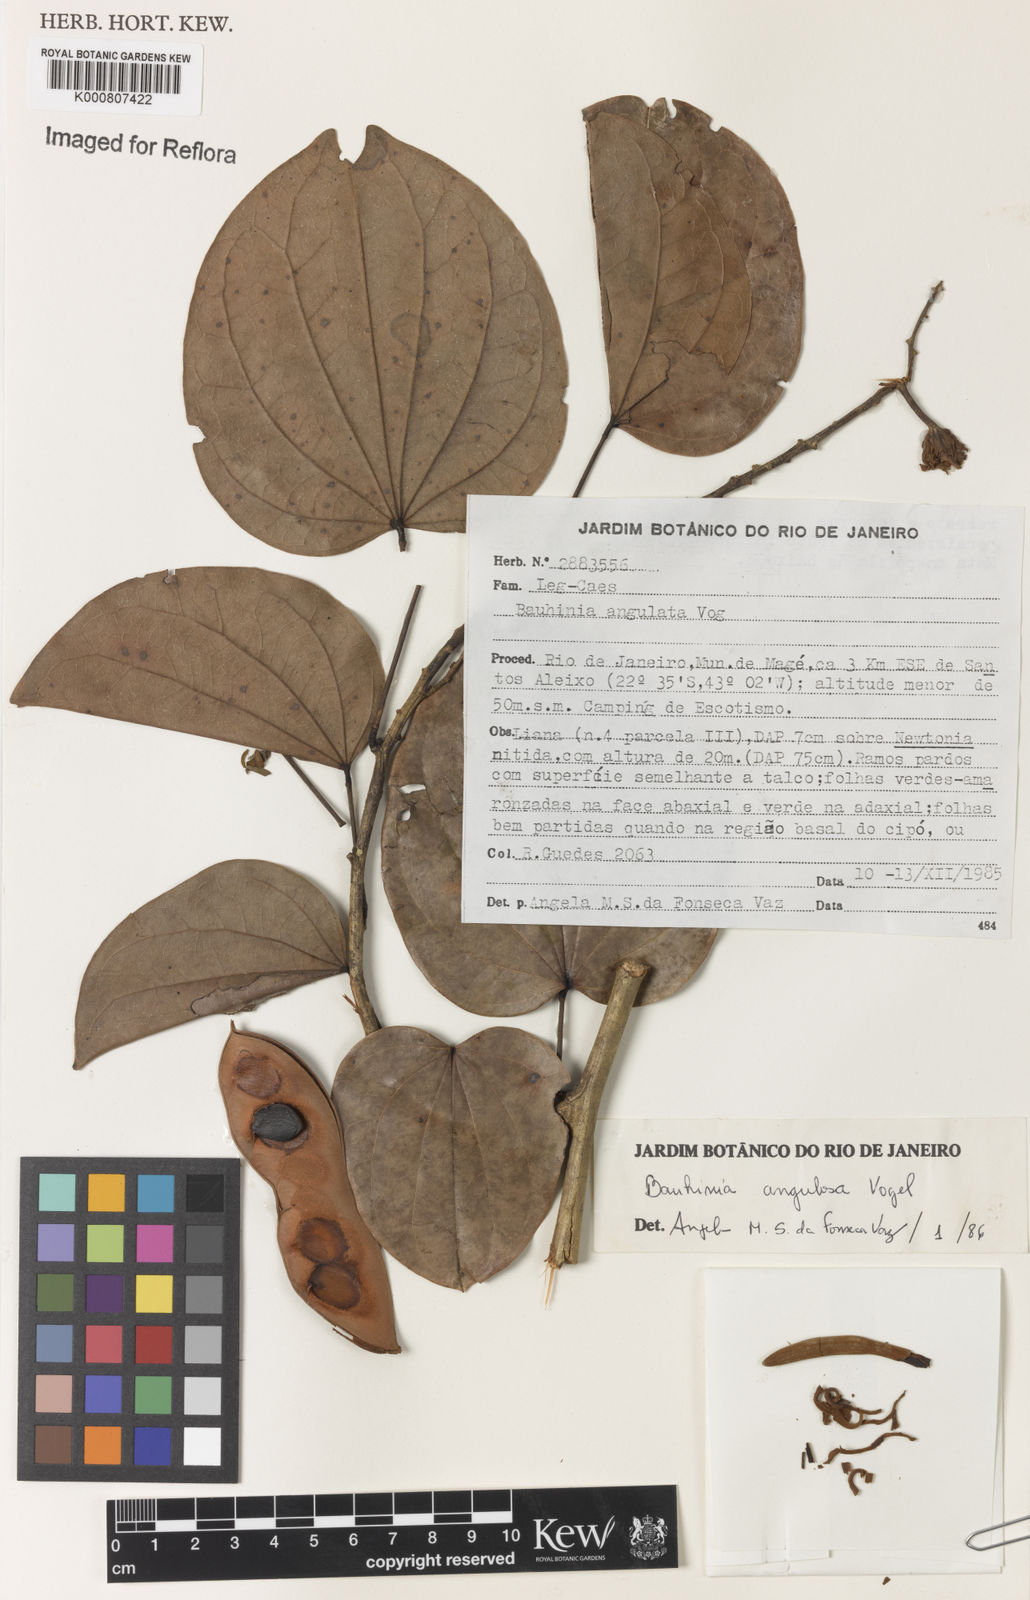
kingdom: Plantae
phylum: Tracheophyta
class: Magnoliopsida
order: Fabales
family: Fabaceae
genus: Schnella
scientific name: Schnella angulosa
